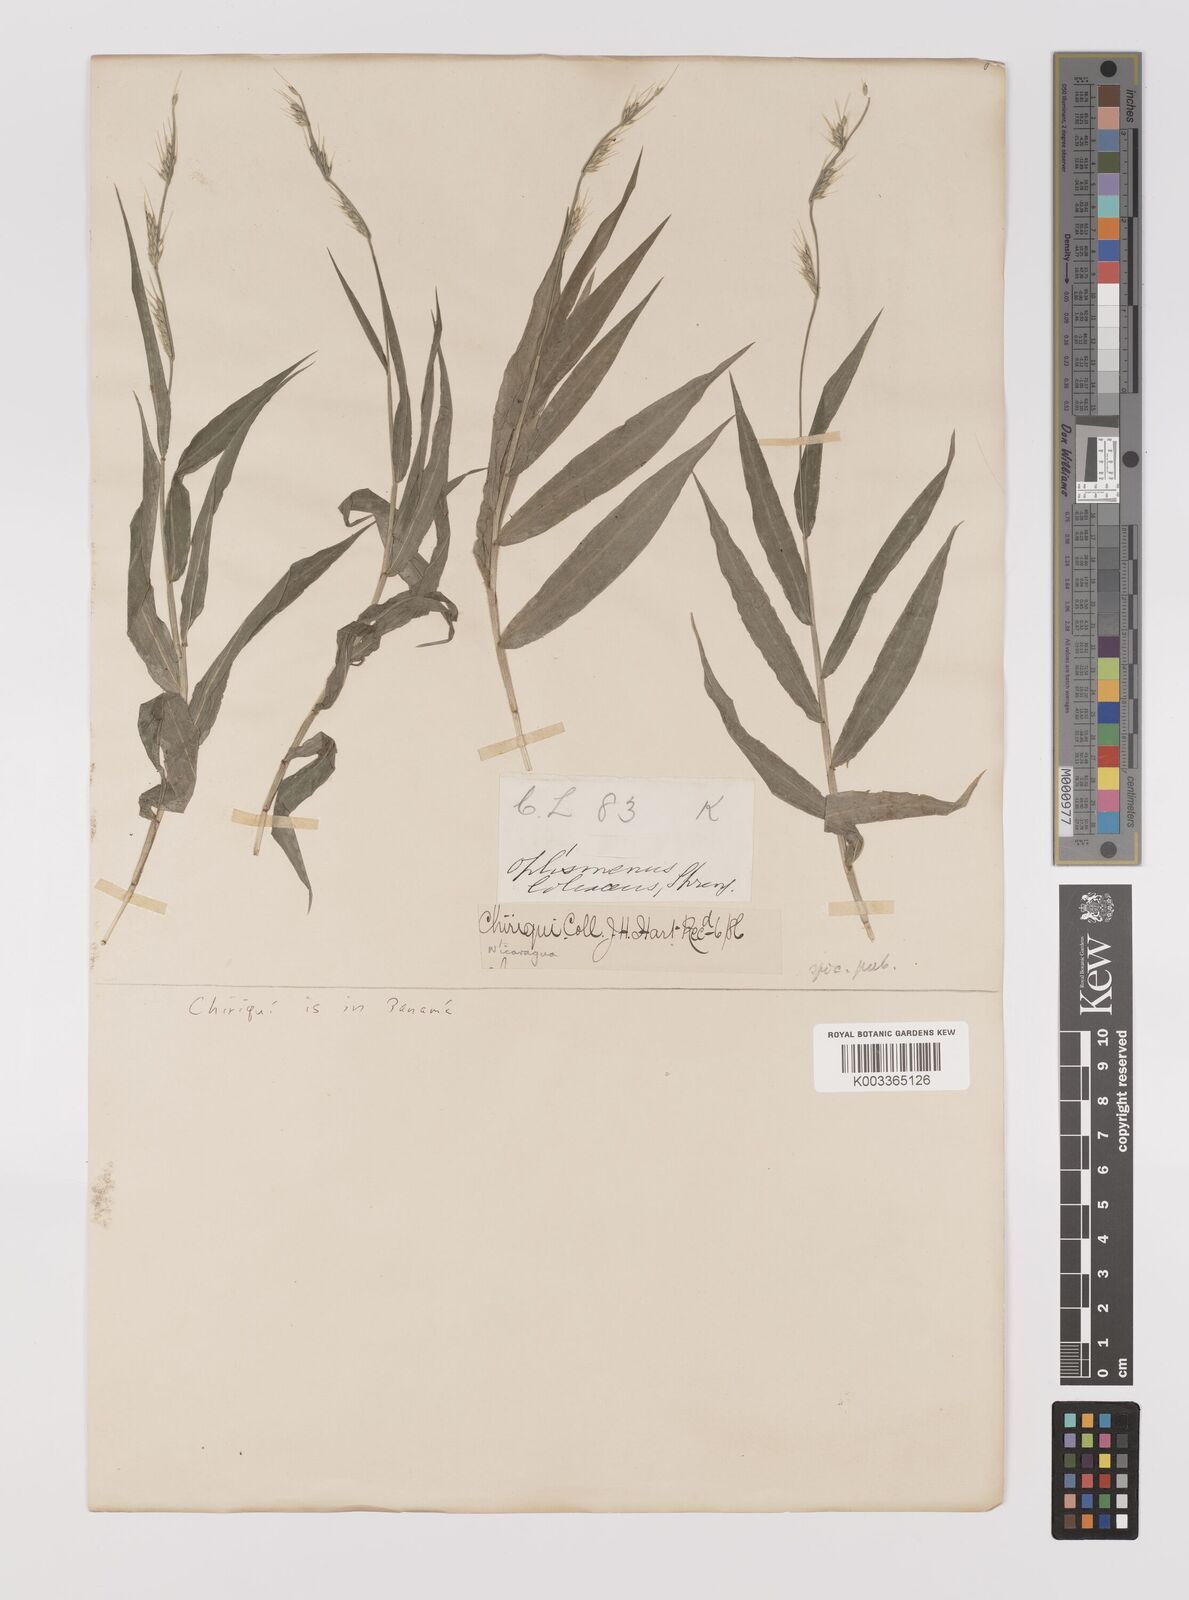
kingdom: Plantae
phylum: Tracheophyta
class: Liliopsida
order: Poales
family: Poaceae
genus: Oplismenus
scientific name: Oplismenus hirtellus
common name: Basketgrass
